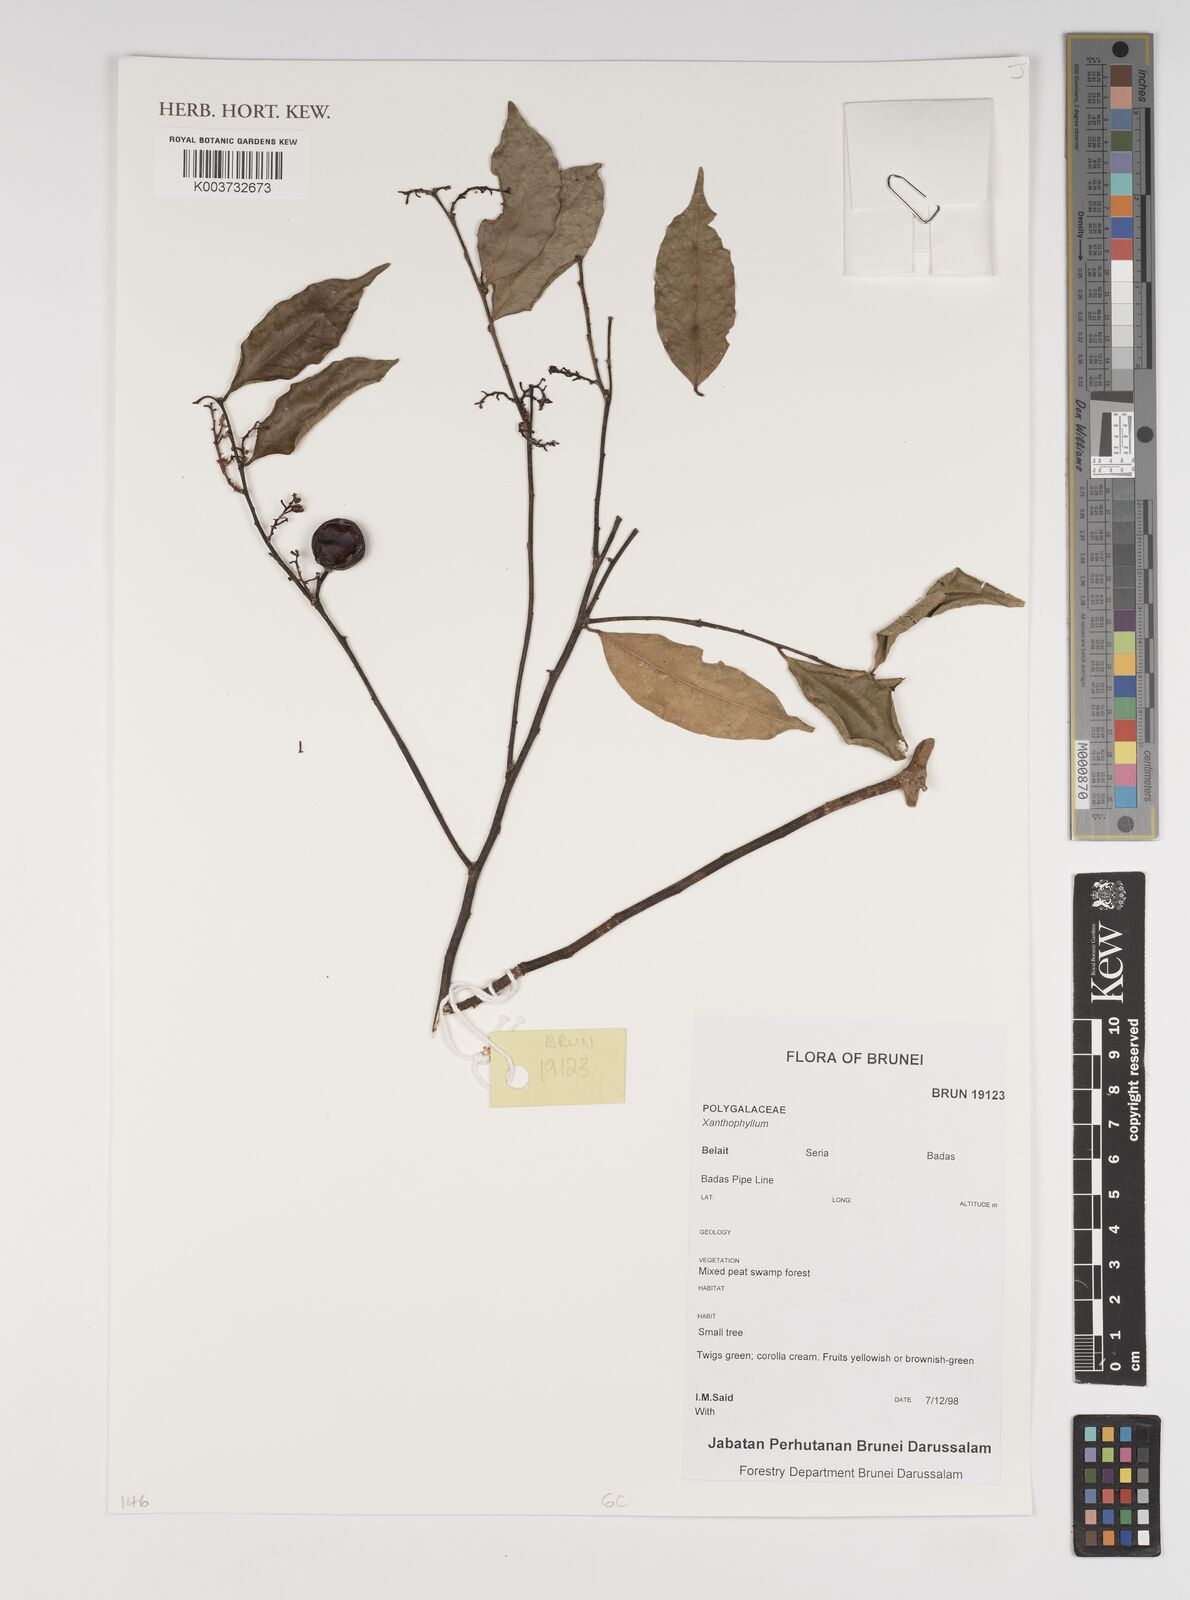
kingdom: Plantae
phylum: Tracheophyta
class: Magnoliopsida
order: Fabales
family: Polygalaceae
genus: Xanthophyllum
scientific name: Xanthophyllum
